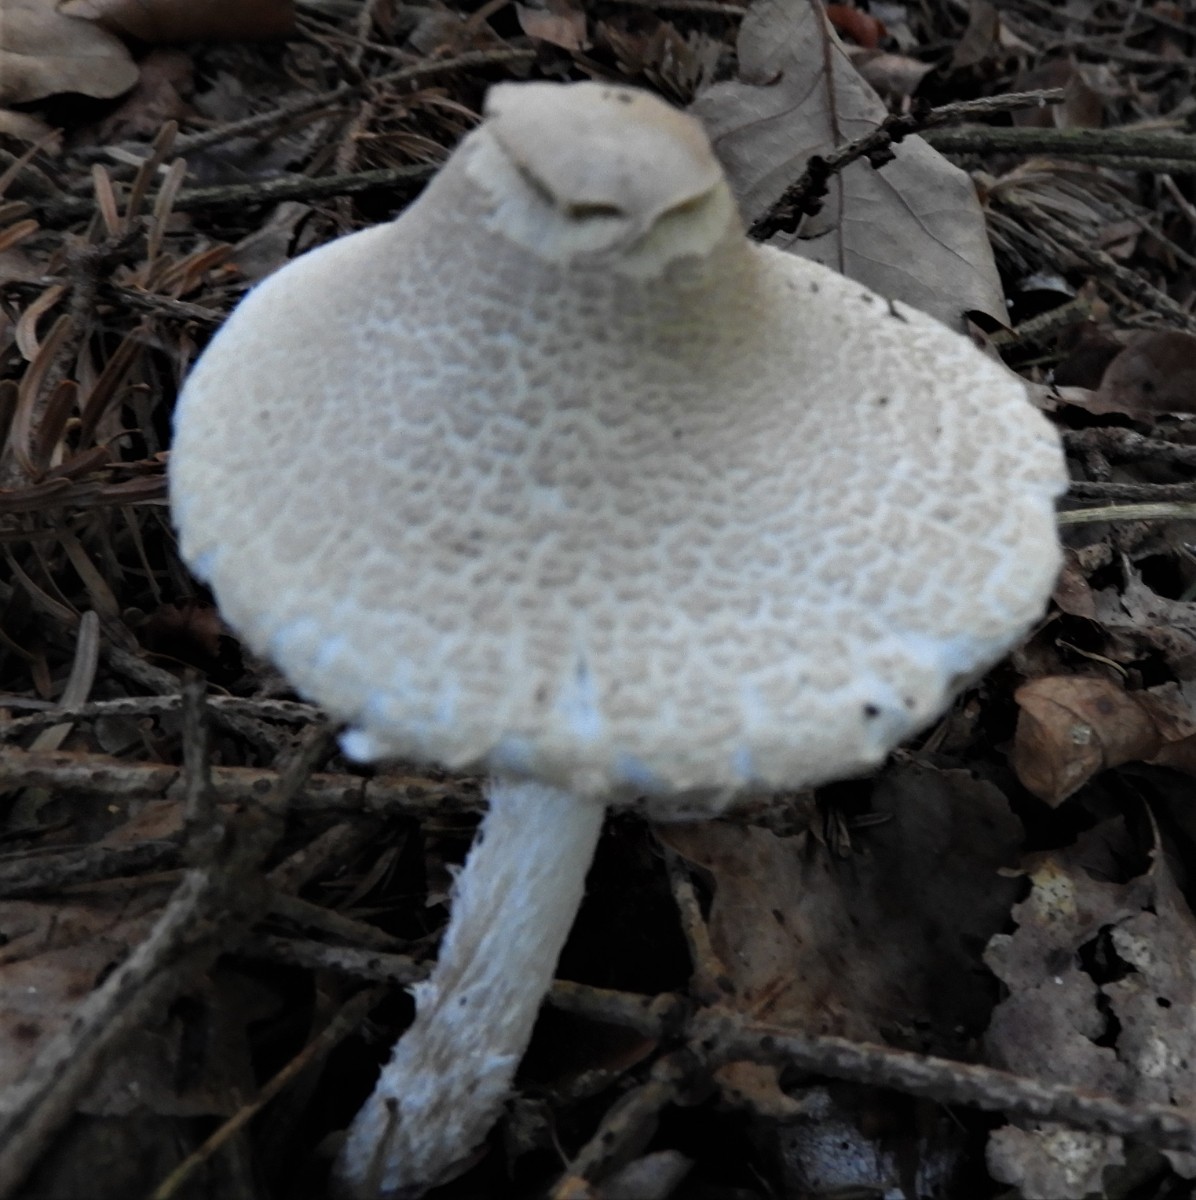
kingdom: Fungi
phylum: Basidiomycota
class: Agaricomycetes
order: Agaricales
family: Agaricaceae
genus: Lepiota
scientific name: Lepiota clypeolaria
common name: flosset parasolhat
